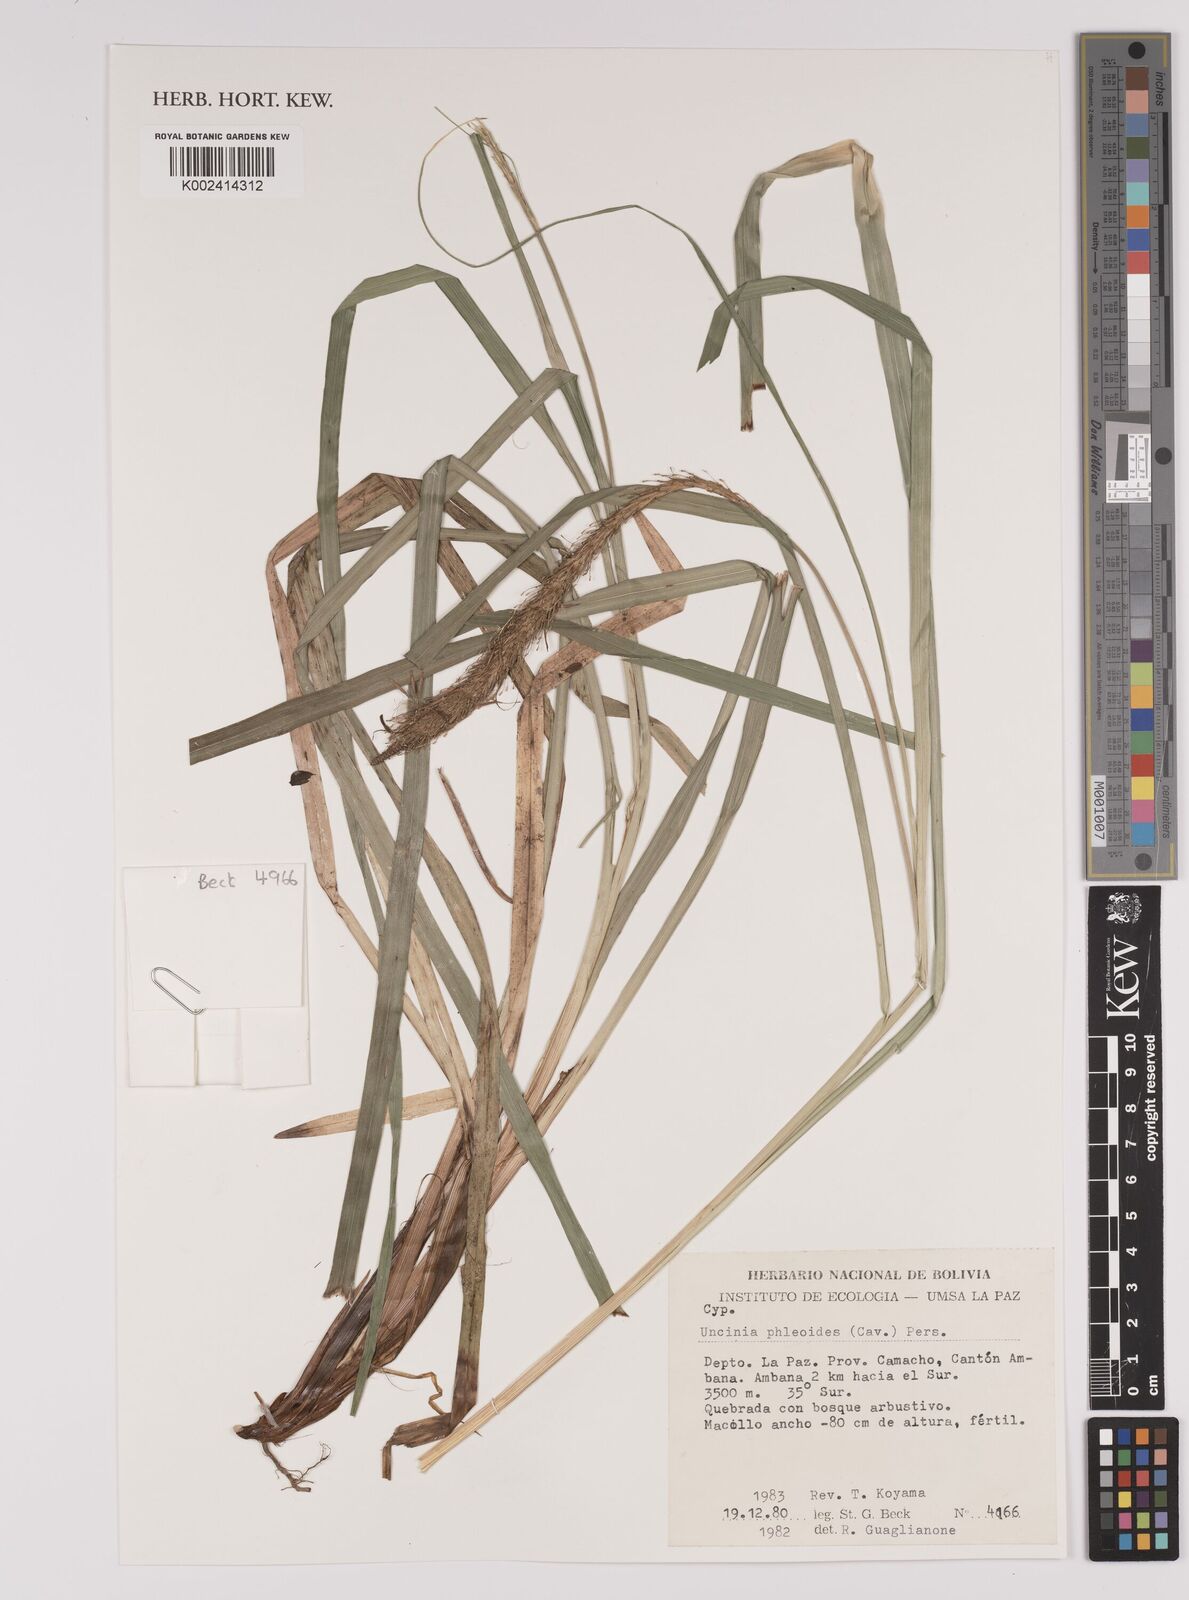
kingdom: Plantae
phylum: Tracheophyta
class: Liliopsida
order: Poales
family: Cyperaceae
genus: Carex
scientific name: Carex phleoides
